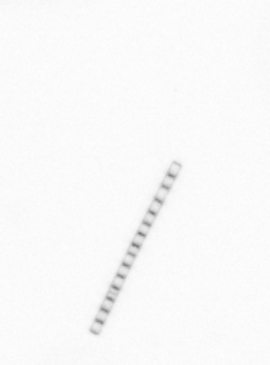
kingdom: Chromista
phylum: Ochrophyta
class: Bacillariophyceae
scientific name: Bacillariophyceae
